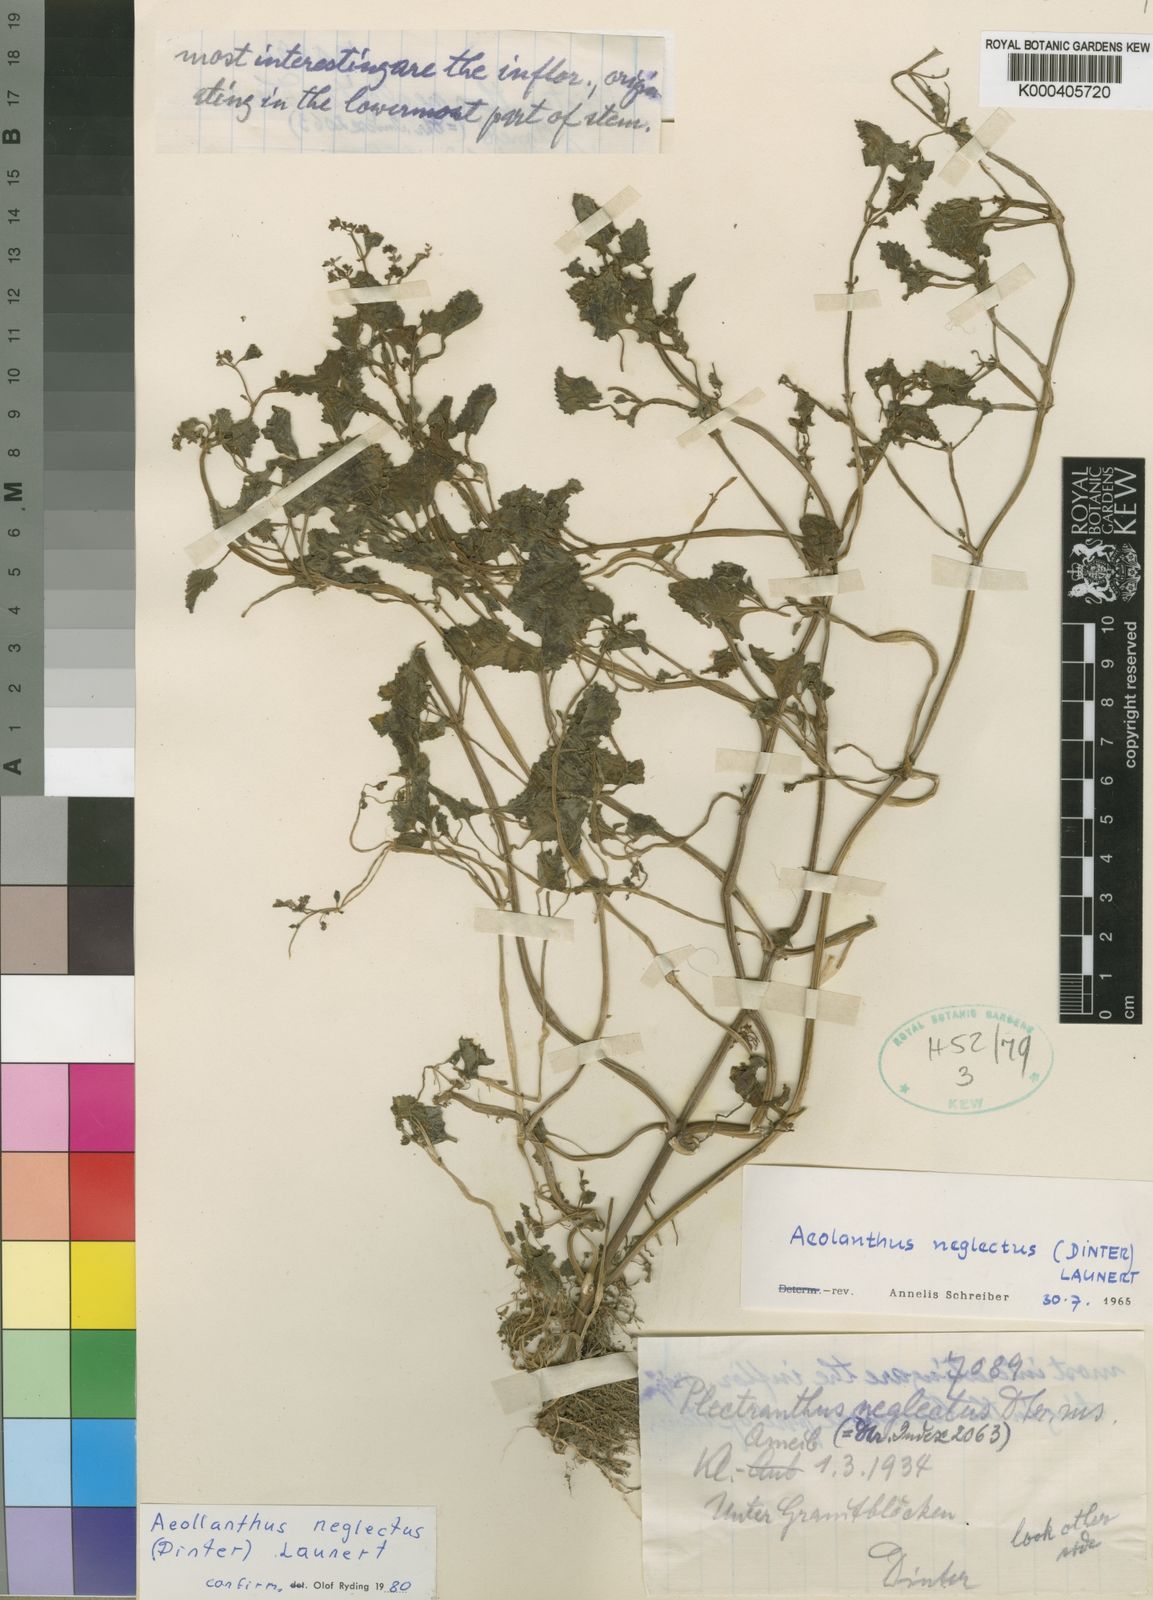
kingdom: Plantae
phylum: Tracheophyta
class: Magnoliopsida
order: Lamiales
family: Lamiaceae
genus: Aeollanthus
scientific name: Aeollanthus neglectus
